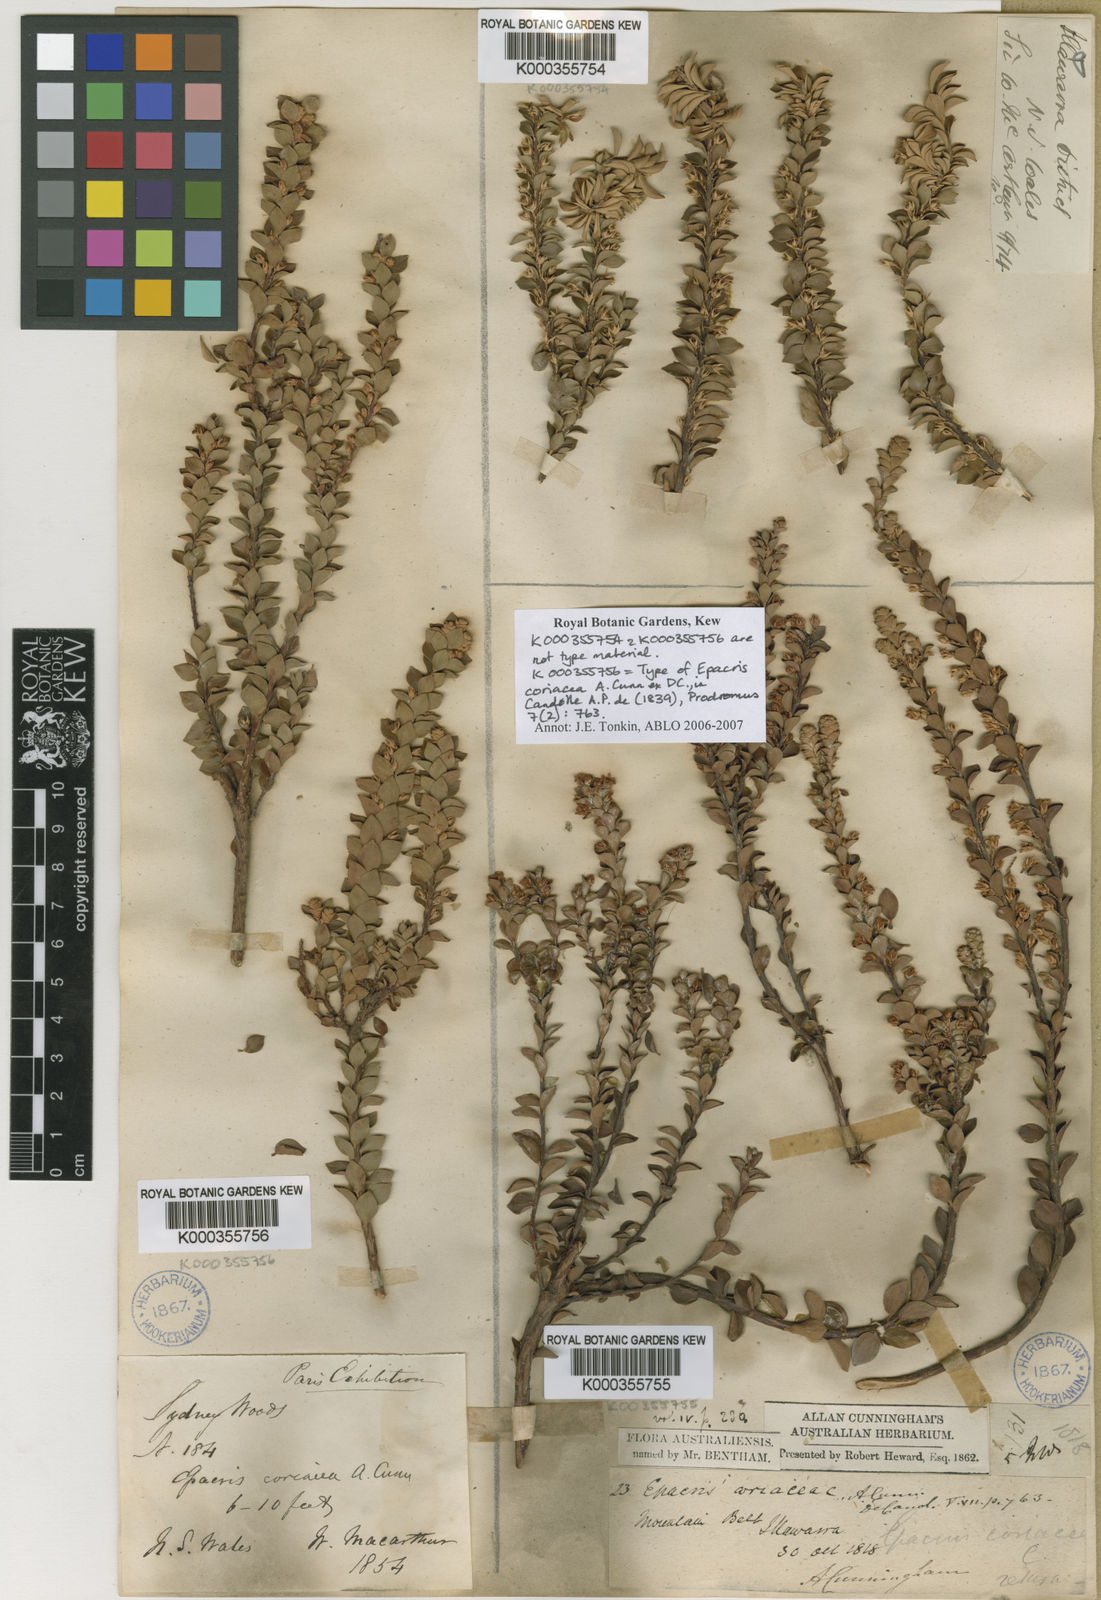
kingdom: Plantae
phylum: Tracheophyta
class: Magnoliopsida
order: Ericales
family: Ericaceae
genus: Epacris
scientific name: Epacris coriacea
